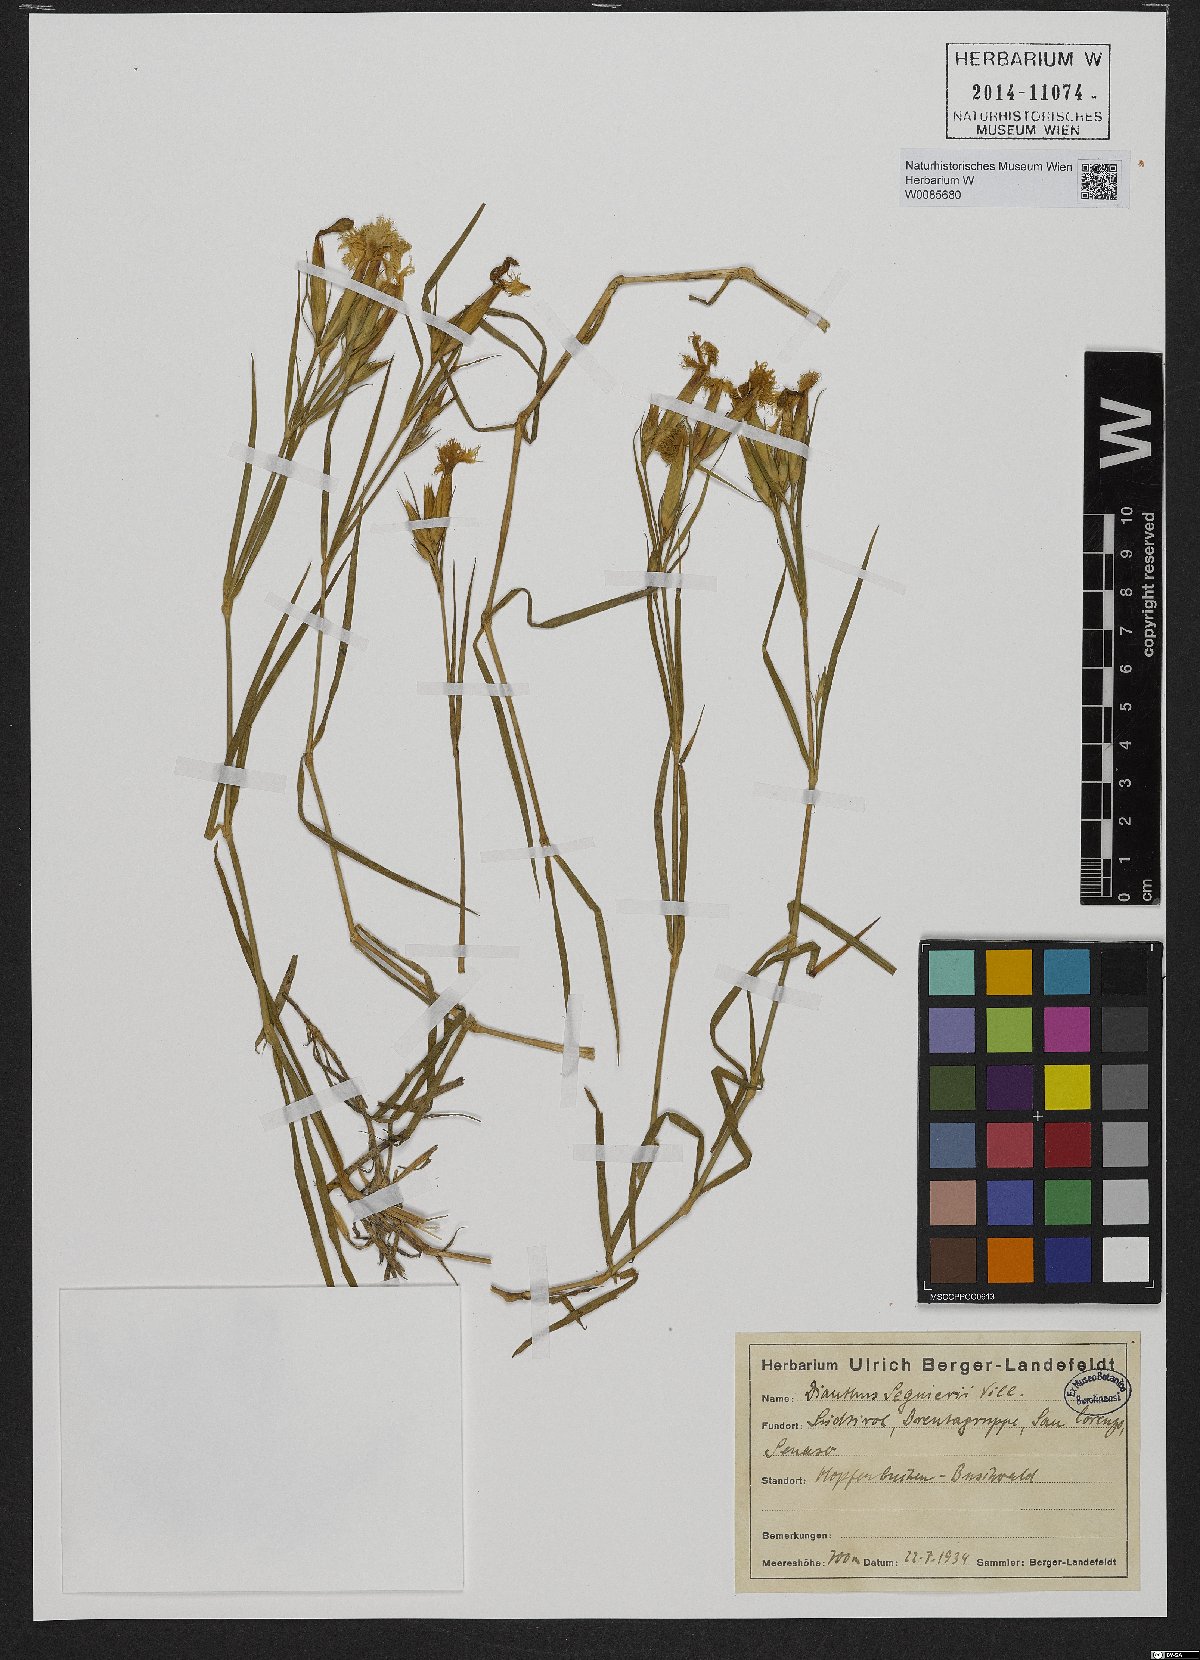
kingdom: Plantae
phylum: Tracheophyta
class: Magnoliopsida
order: Caryophyllales
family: Caryophyllaceae
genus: Dianthus
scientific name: Dianthus seguieri
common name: Ragged pink
